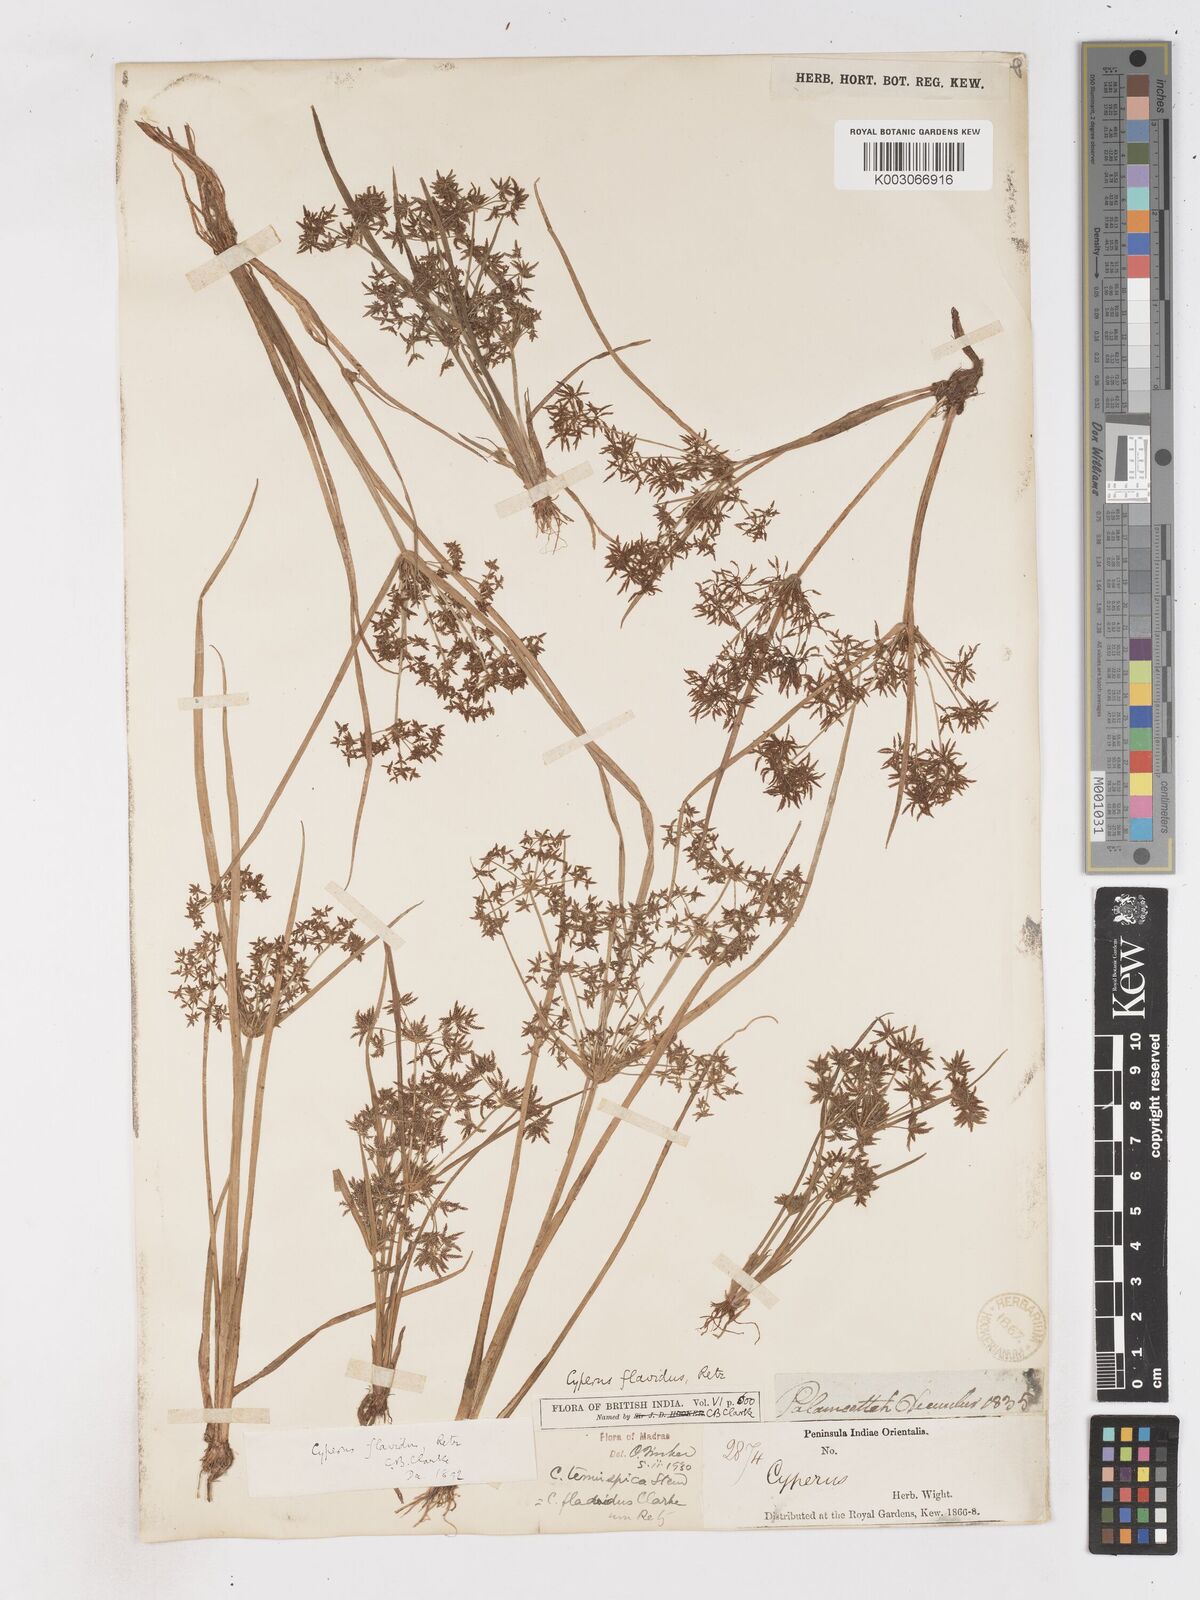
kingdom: Plantae
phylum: Tracheophyta
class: Liliopsida
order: Poales
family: Cyperaceae
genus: Cyperus
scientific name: Cyperus tenuispica
